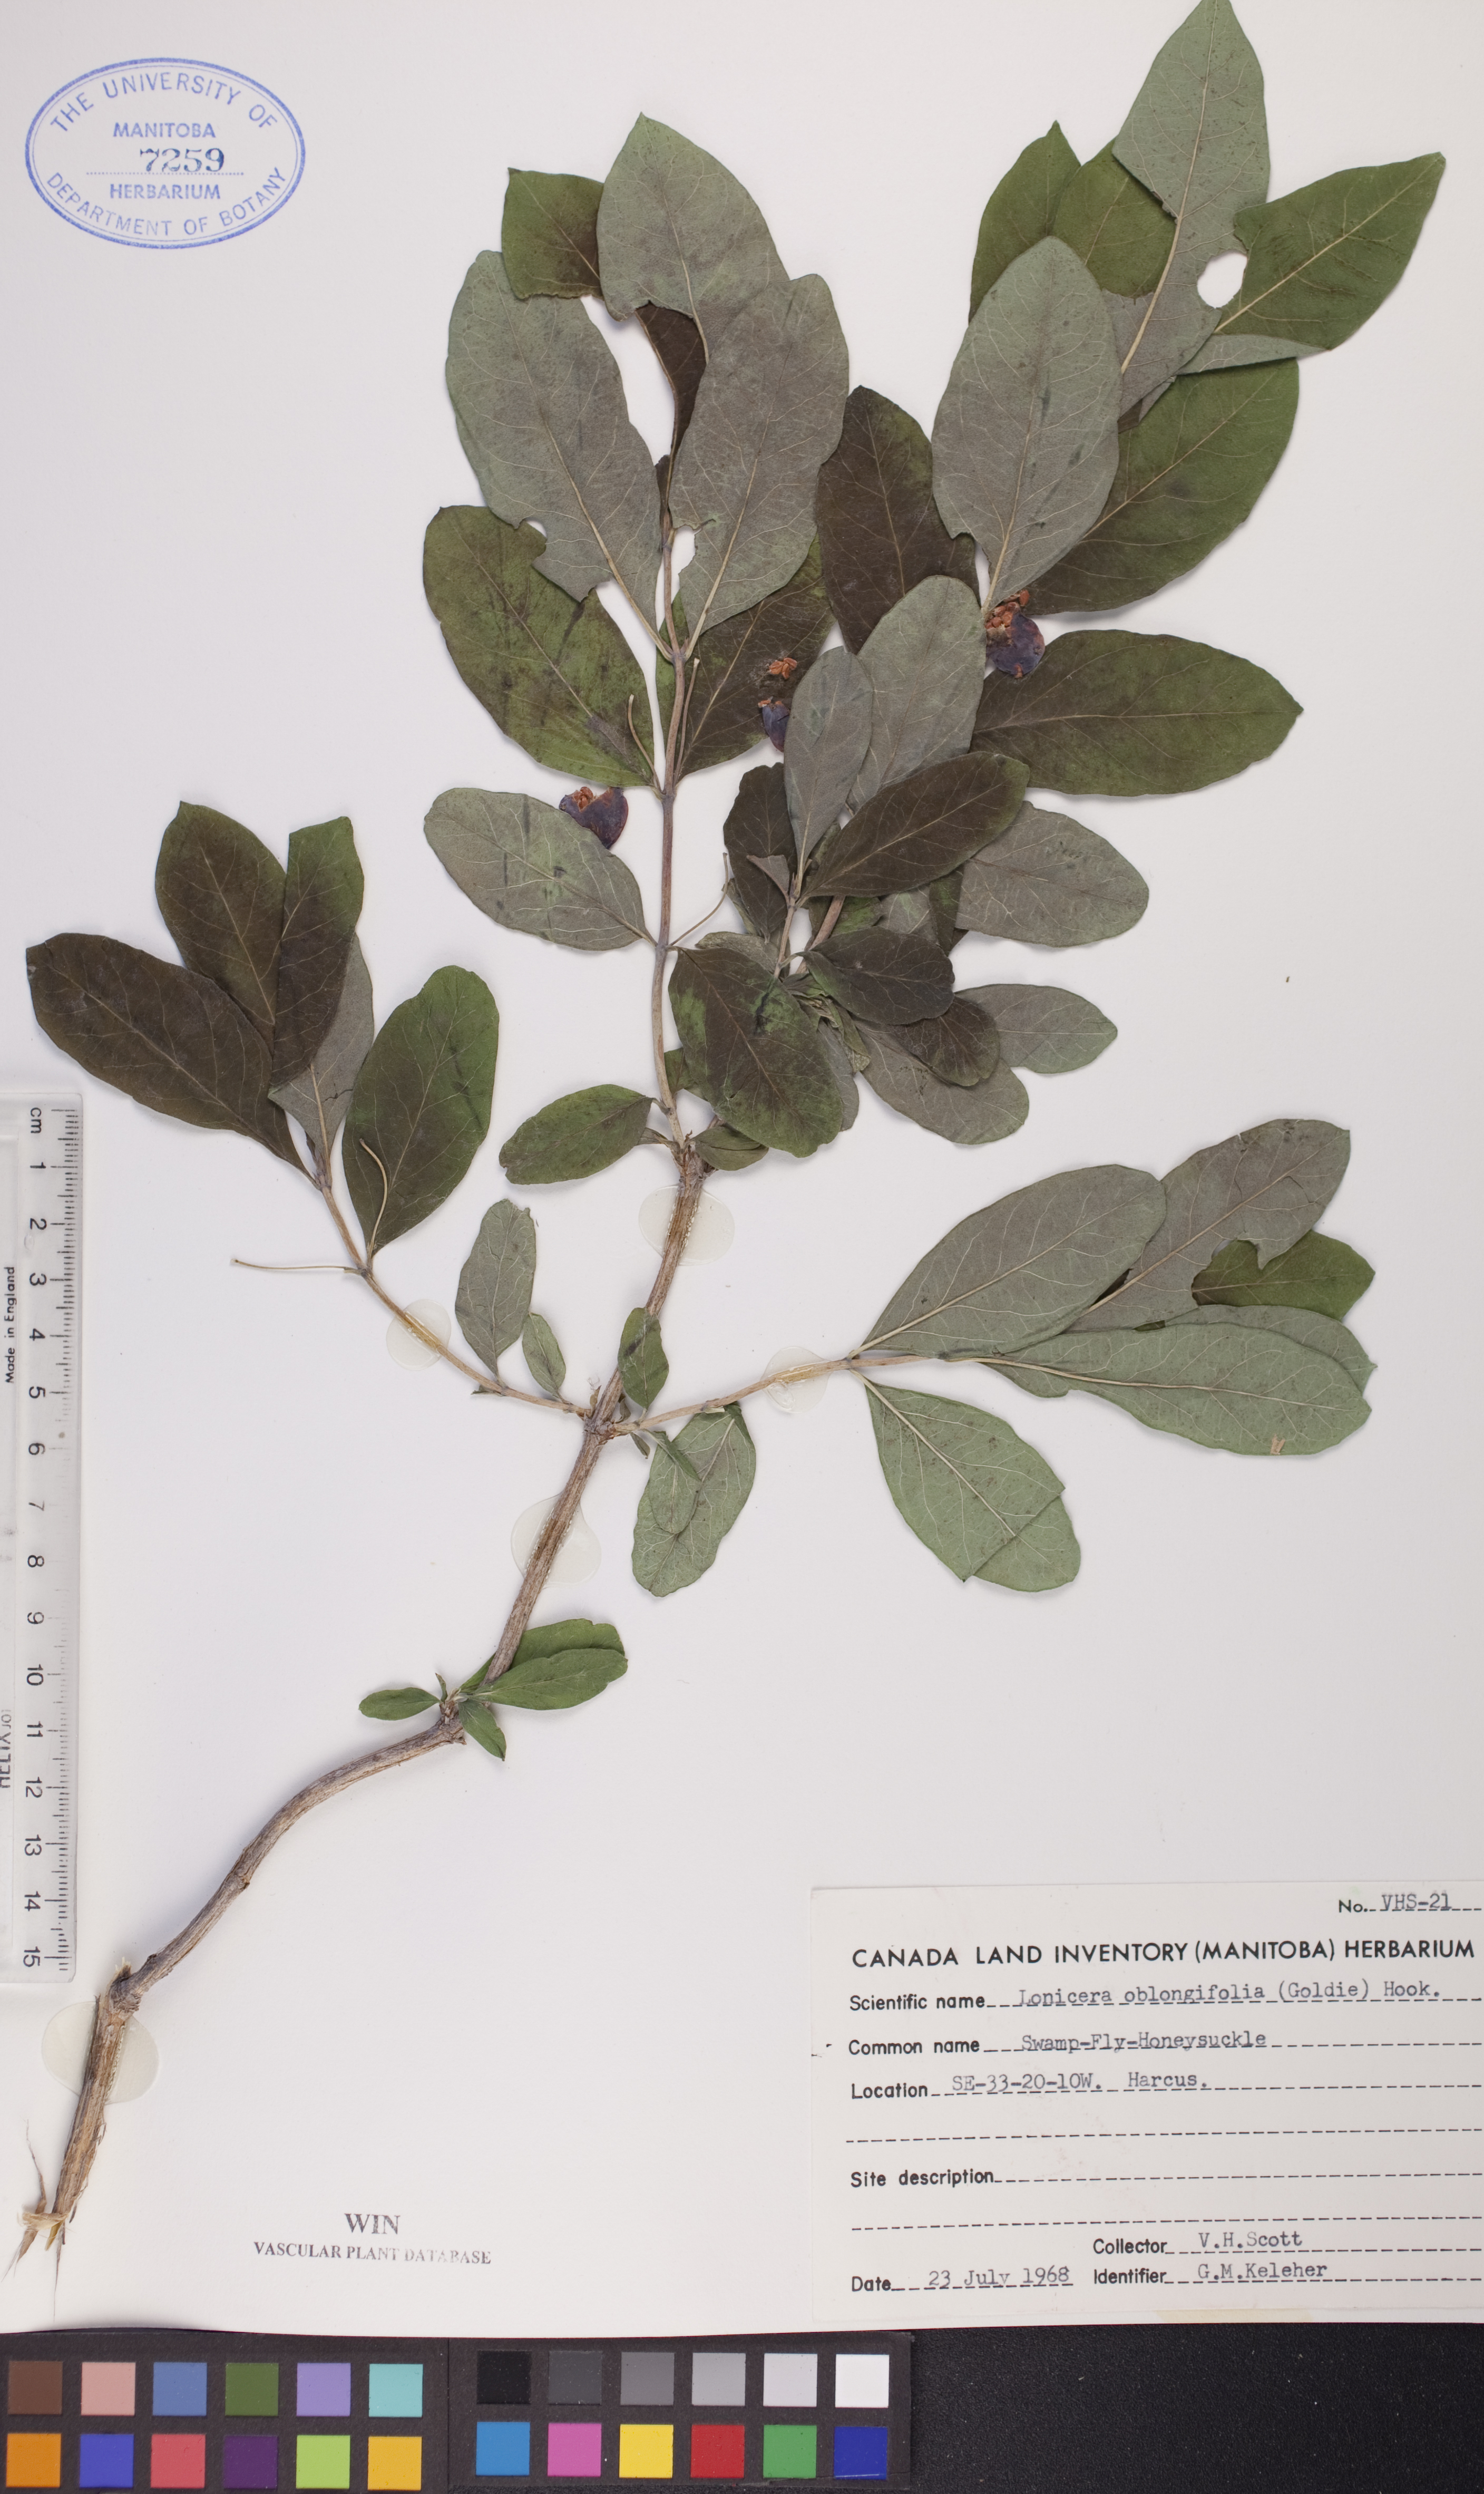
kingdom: Plantae
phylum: Tracheophyta
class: Magnoliopsida
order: Dipsacales
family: Caprifoliaceae
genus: Lonicera
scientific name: Lonicera oblongifolia
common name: Swamp fly honeysuckle
